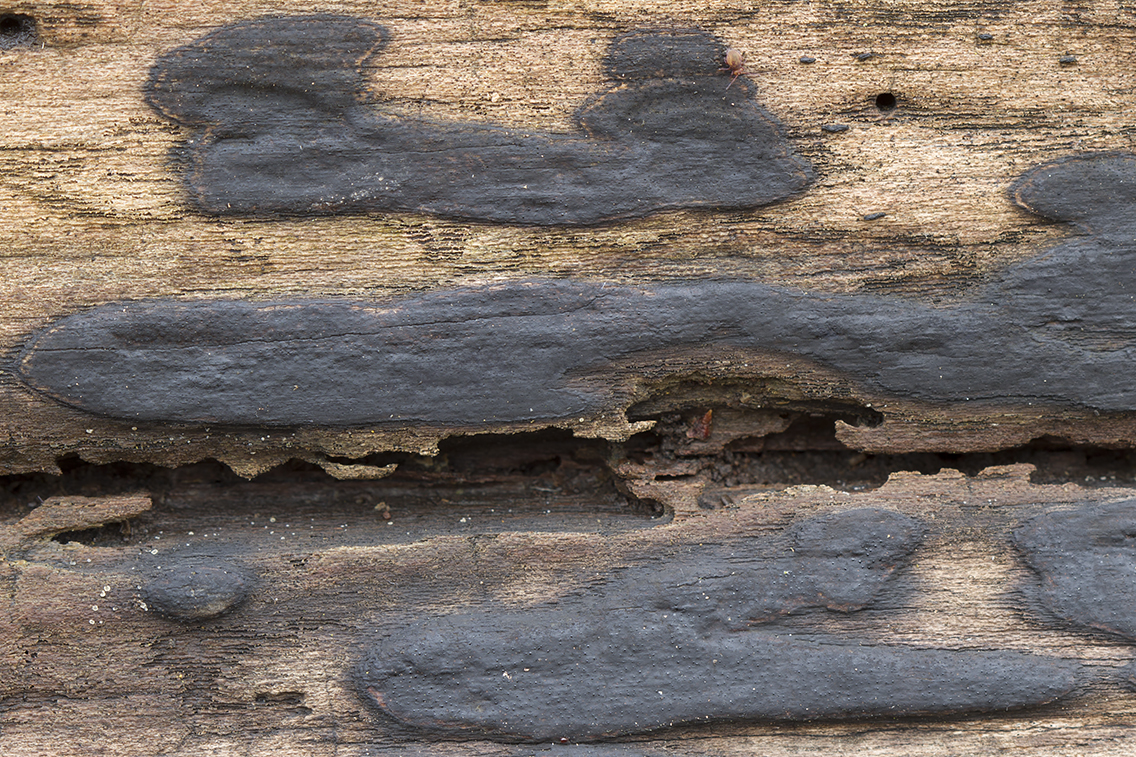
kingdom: Fungi
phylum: Ascomycota
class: Sordariomycetes
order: Xylariales
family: Lopadostomataceae
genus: Lopadostoma
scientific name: Lopadostoma pouzarii
